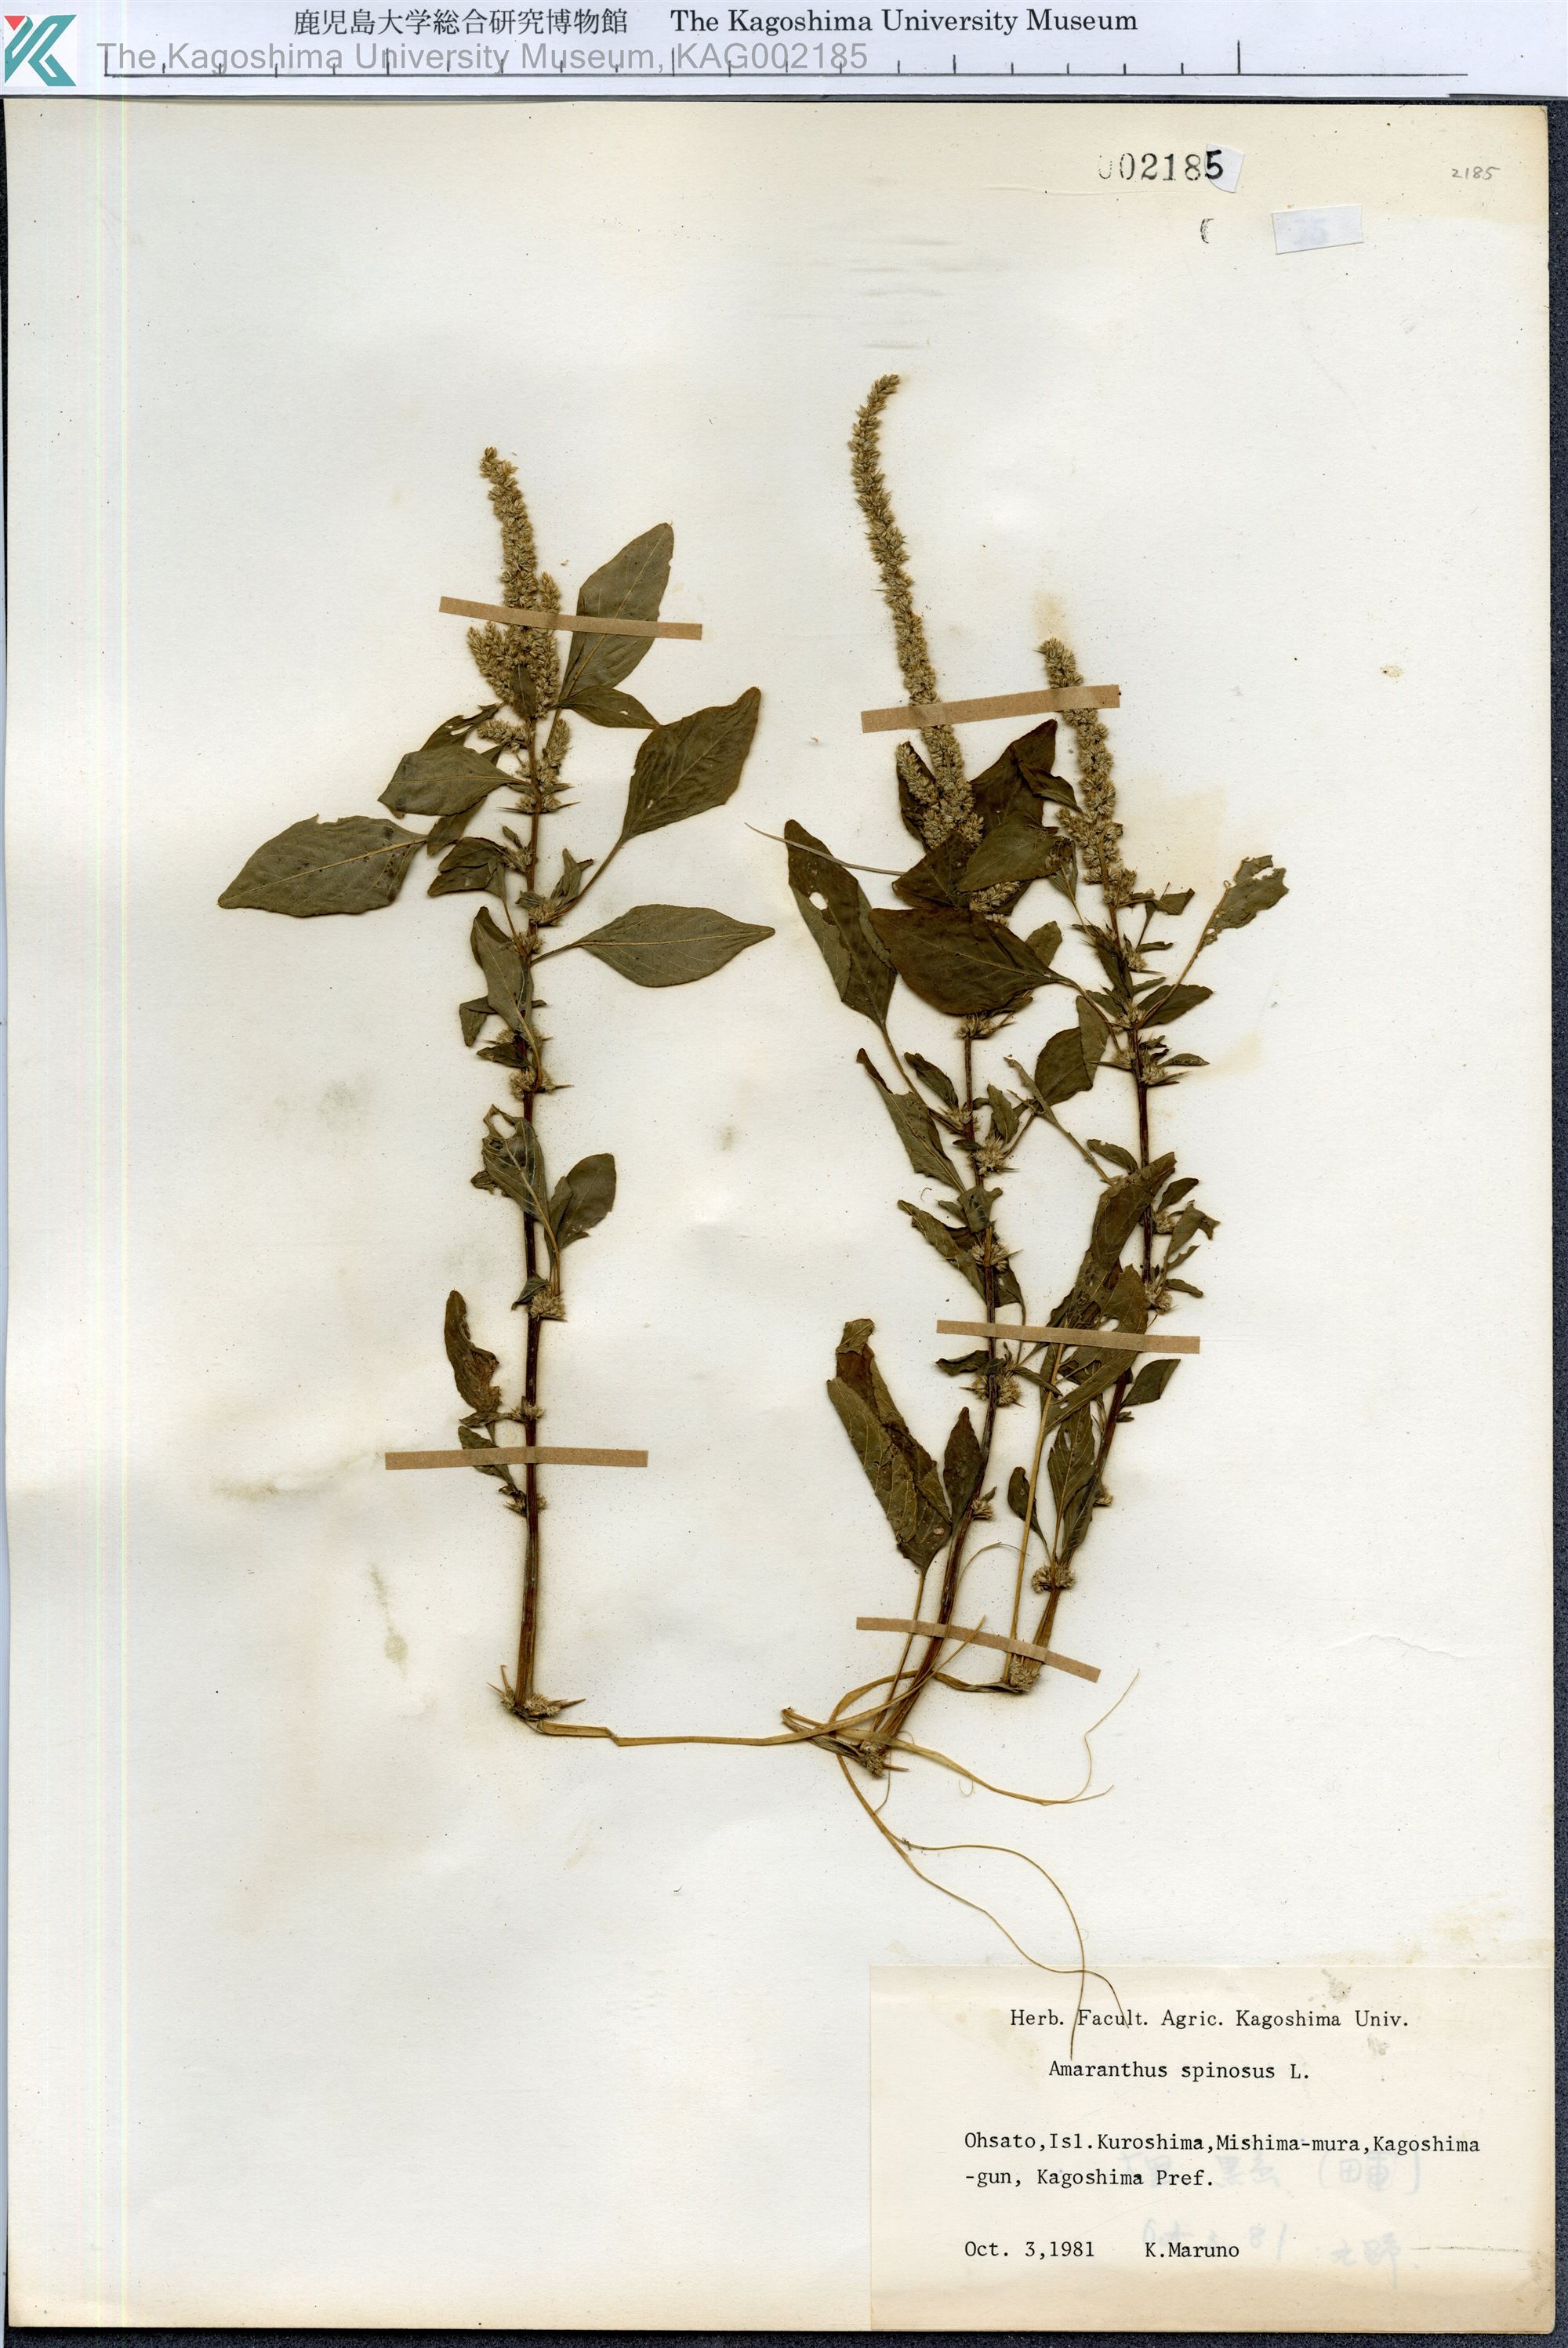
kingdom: Plantae
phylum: Tracheophyta
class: Magnoliopsida
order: Caryophyllales
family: Amaranthaceae
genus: Amaranthus
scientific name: Amaranthus spinosus
